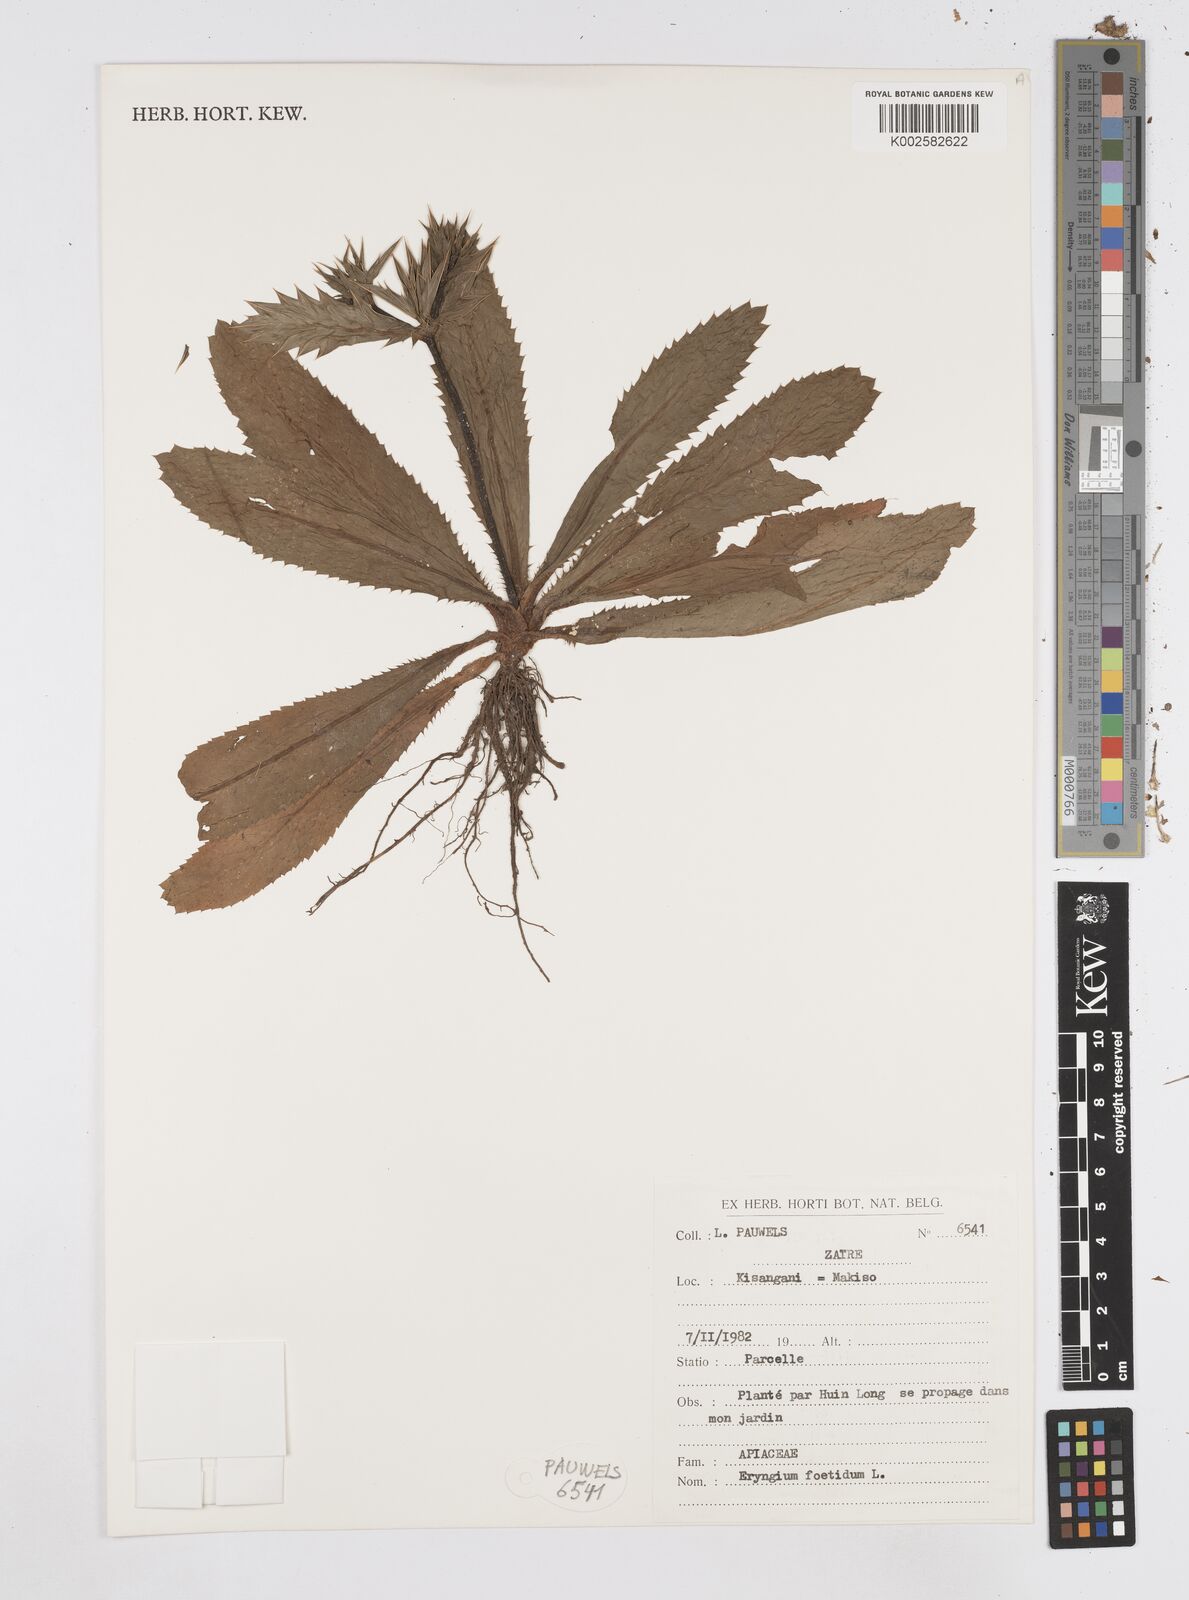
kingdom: Plantae
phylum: Tracheophyta
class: Magnoliopsida
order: Apiales
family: Apiaceae
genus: Eryngium
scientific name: Eryngium foetidum
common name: Fitweed
